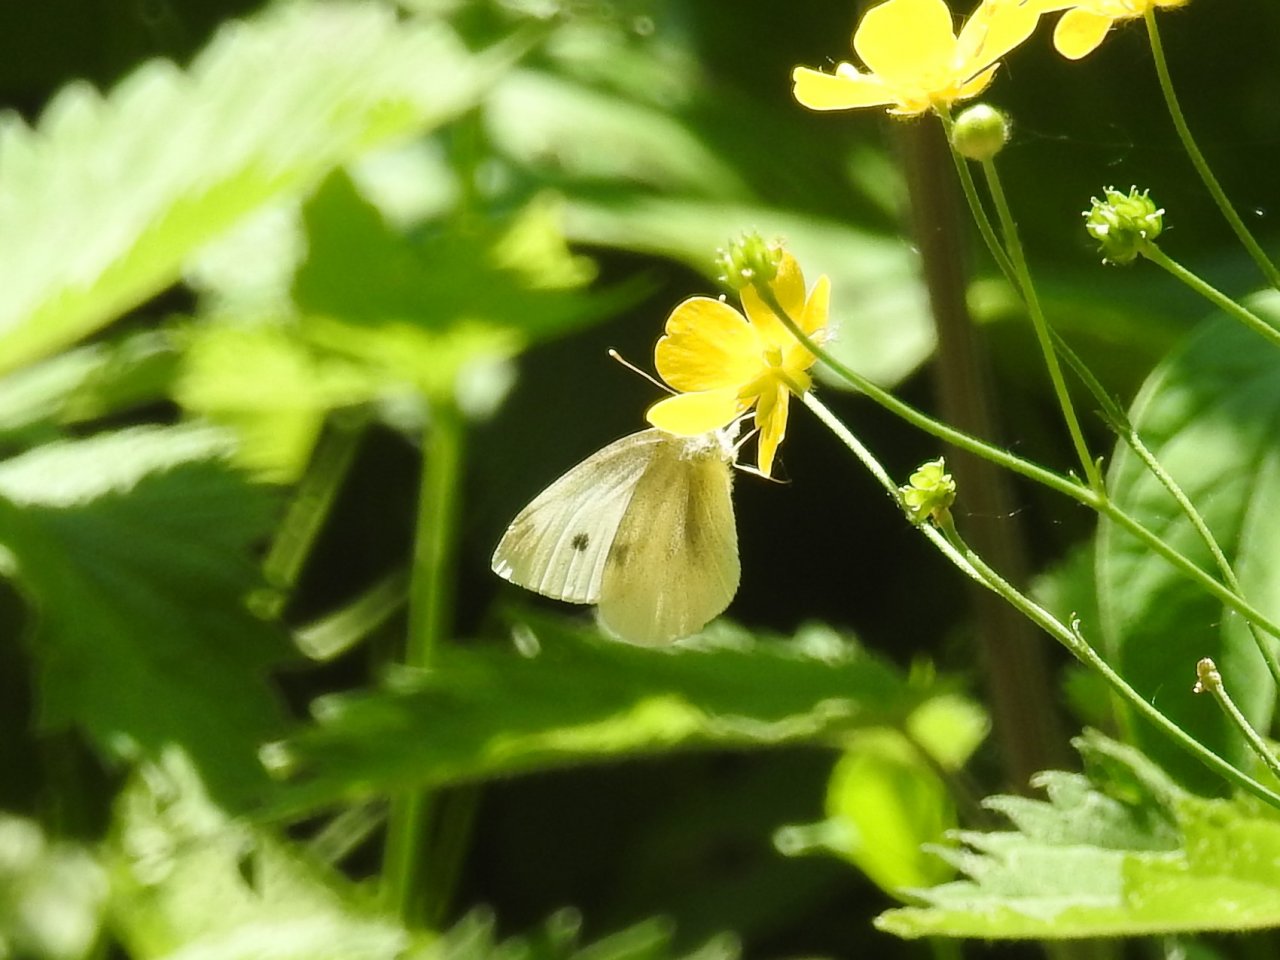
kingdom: Animalia
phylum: Arthropoda
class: Insecta
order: Lepidoptera
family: Pieridae
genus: Pieris
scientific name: Pieris rapae
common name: Cabbage White
